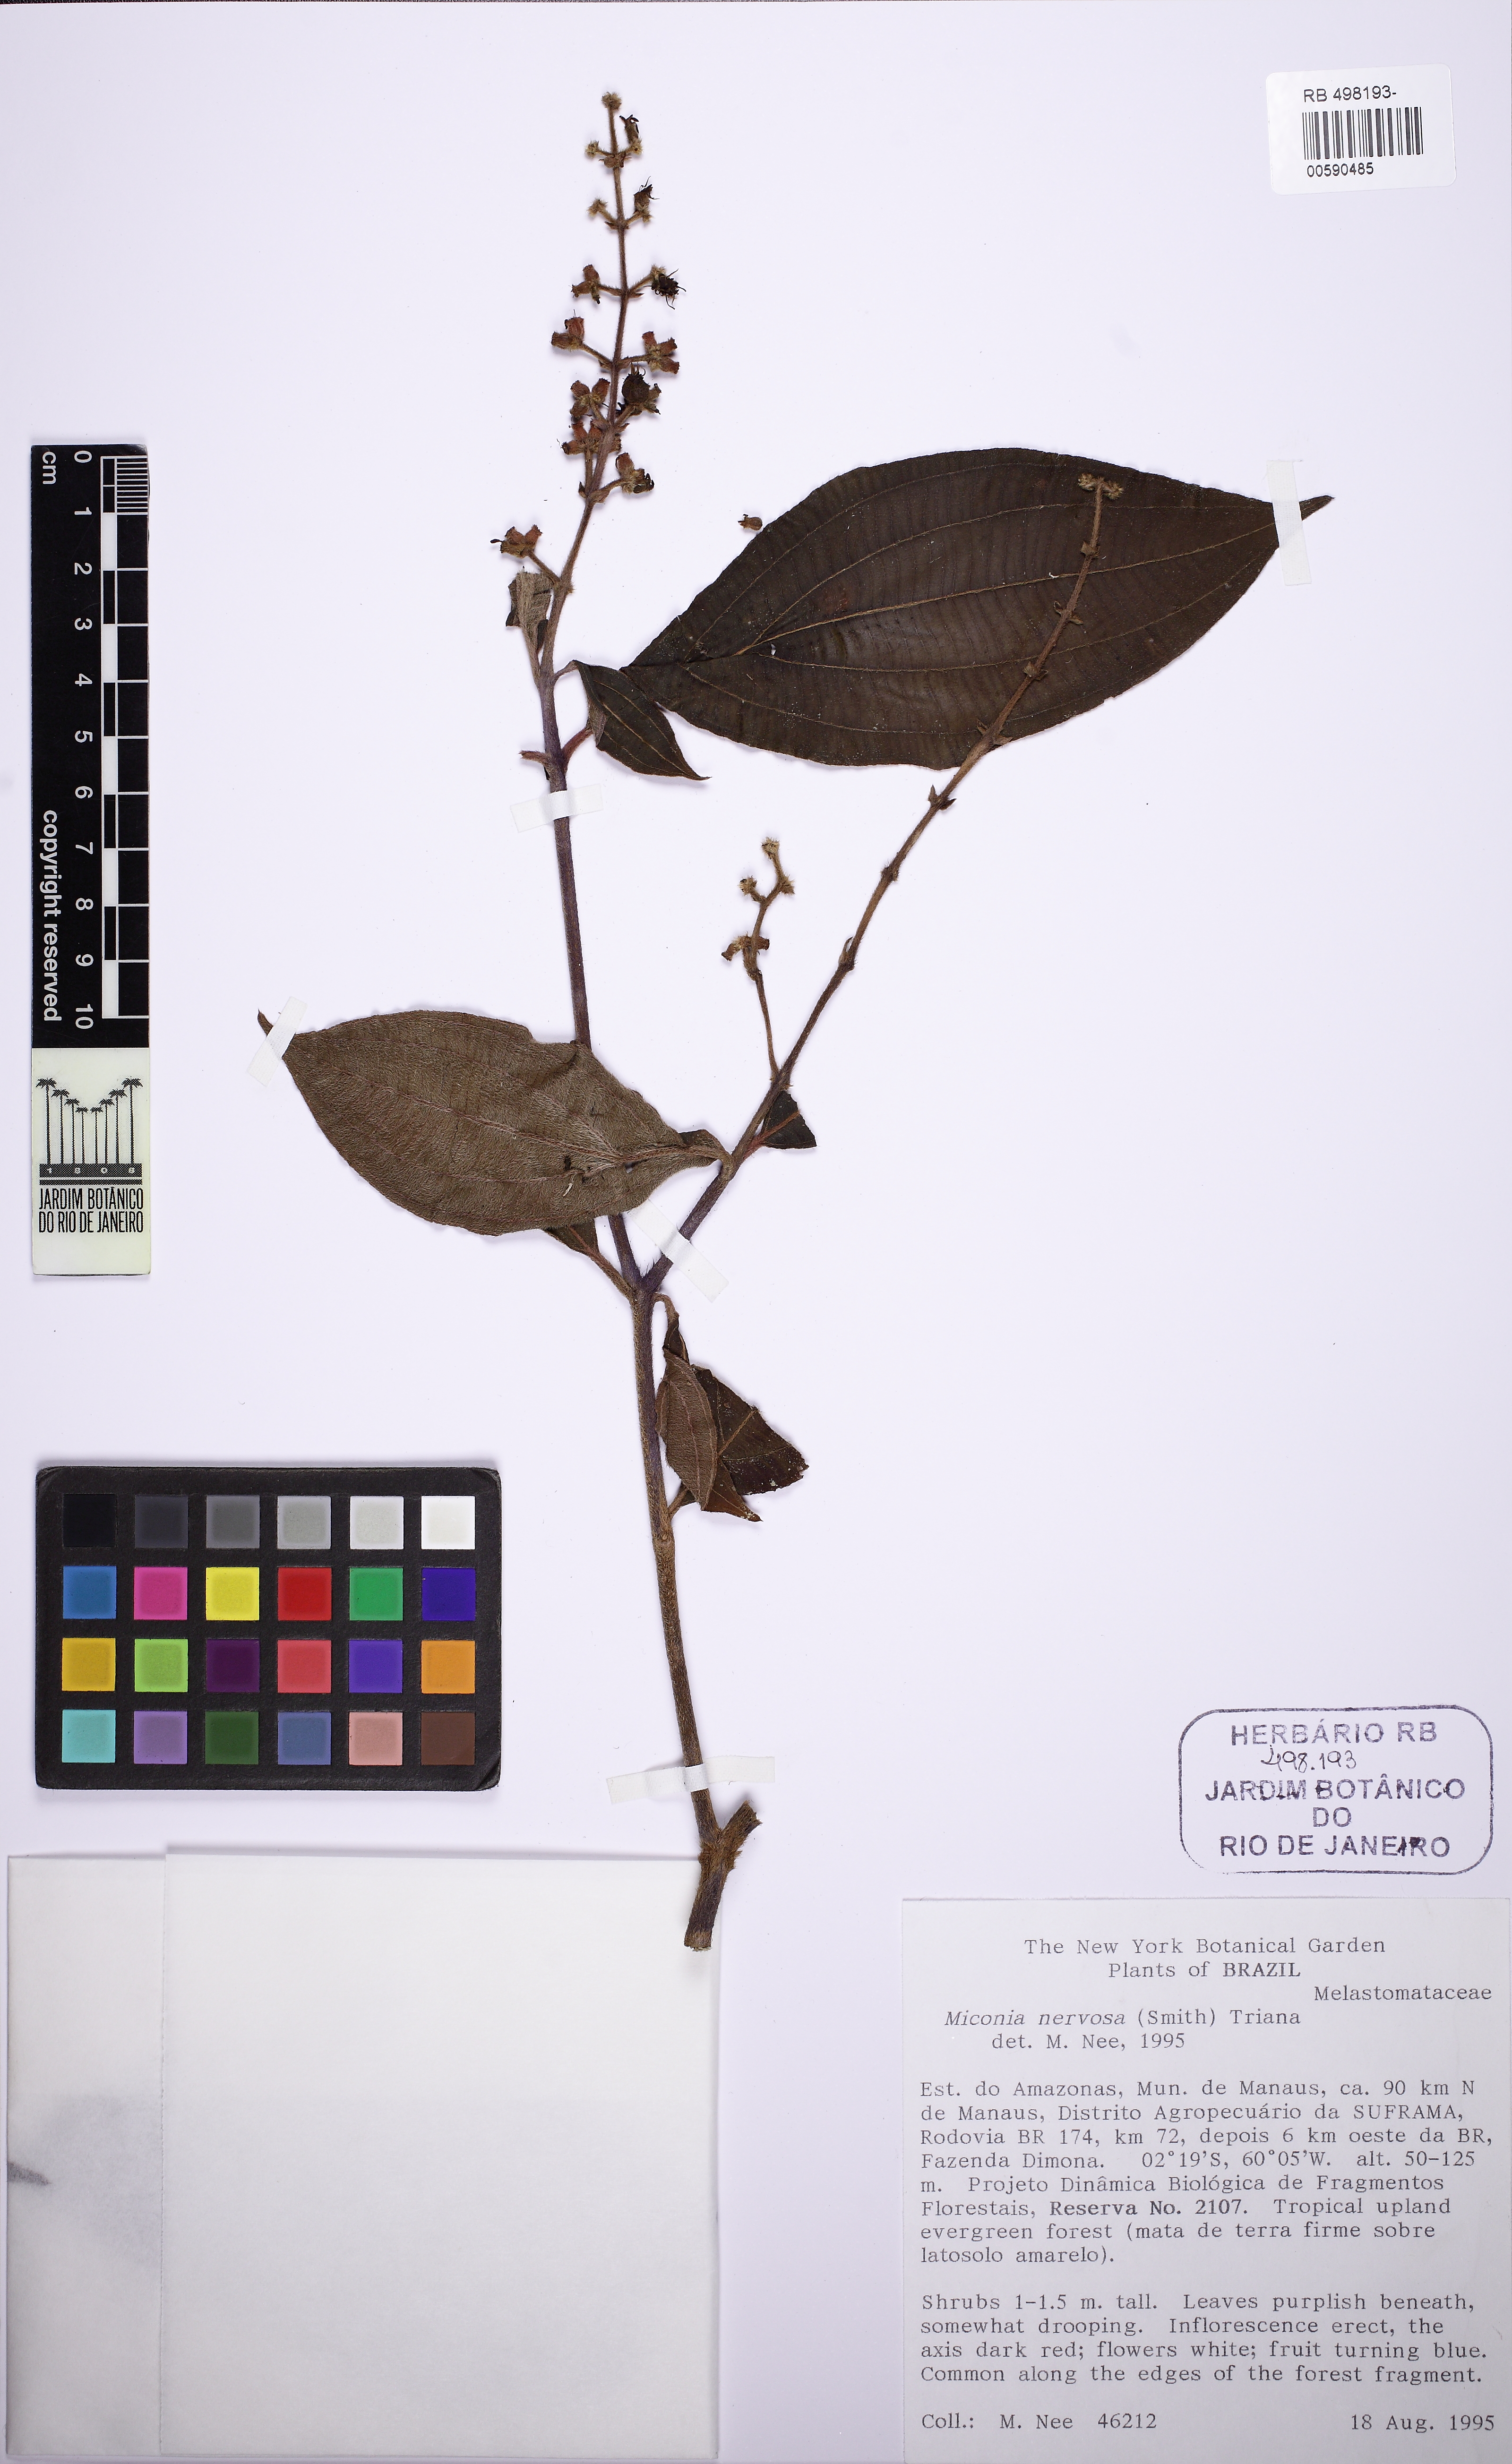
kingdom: Plantae
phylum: Tracheophyta
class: Magnoliopsida
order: Myrtales
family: Melastomataceae
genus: Miconia
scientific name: Miconia nervosa
